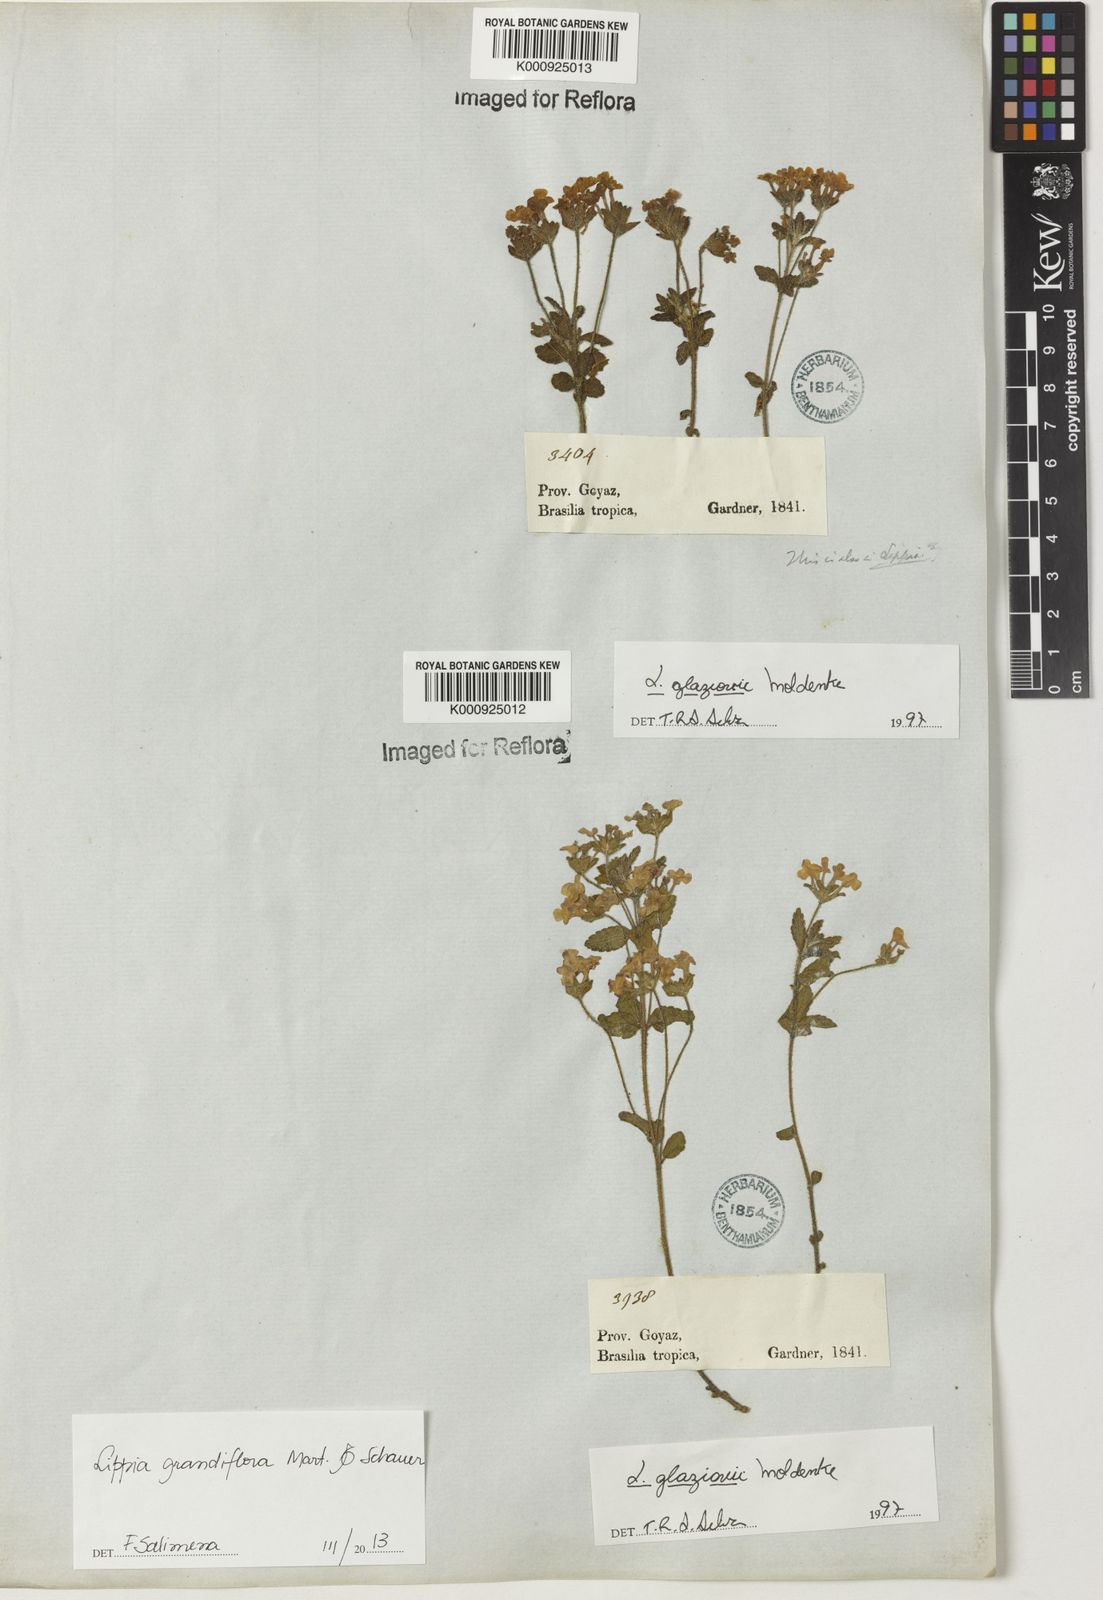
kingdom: Plantae
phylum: Tracheophyta
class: Magnoliopsida
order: Lamiales
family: Verbenaceae
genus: Lippia
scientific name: Lippia grandiflora
